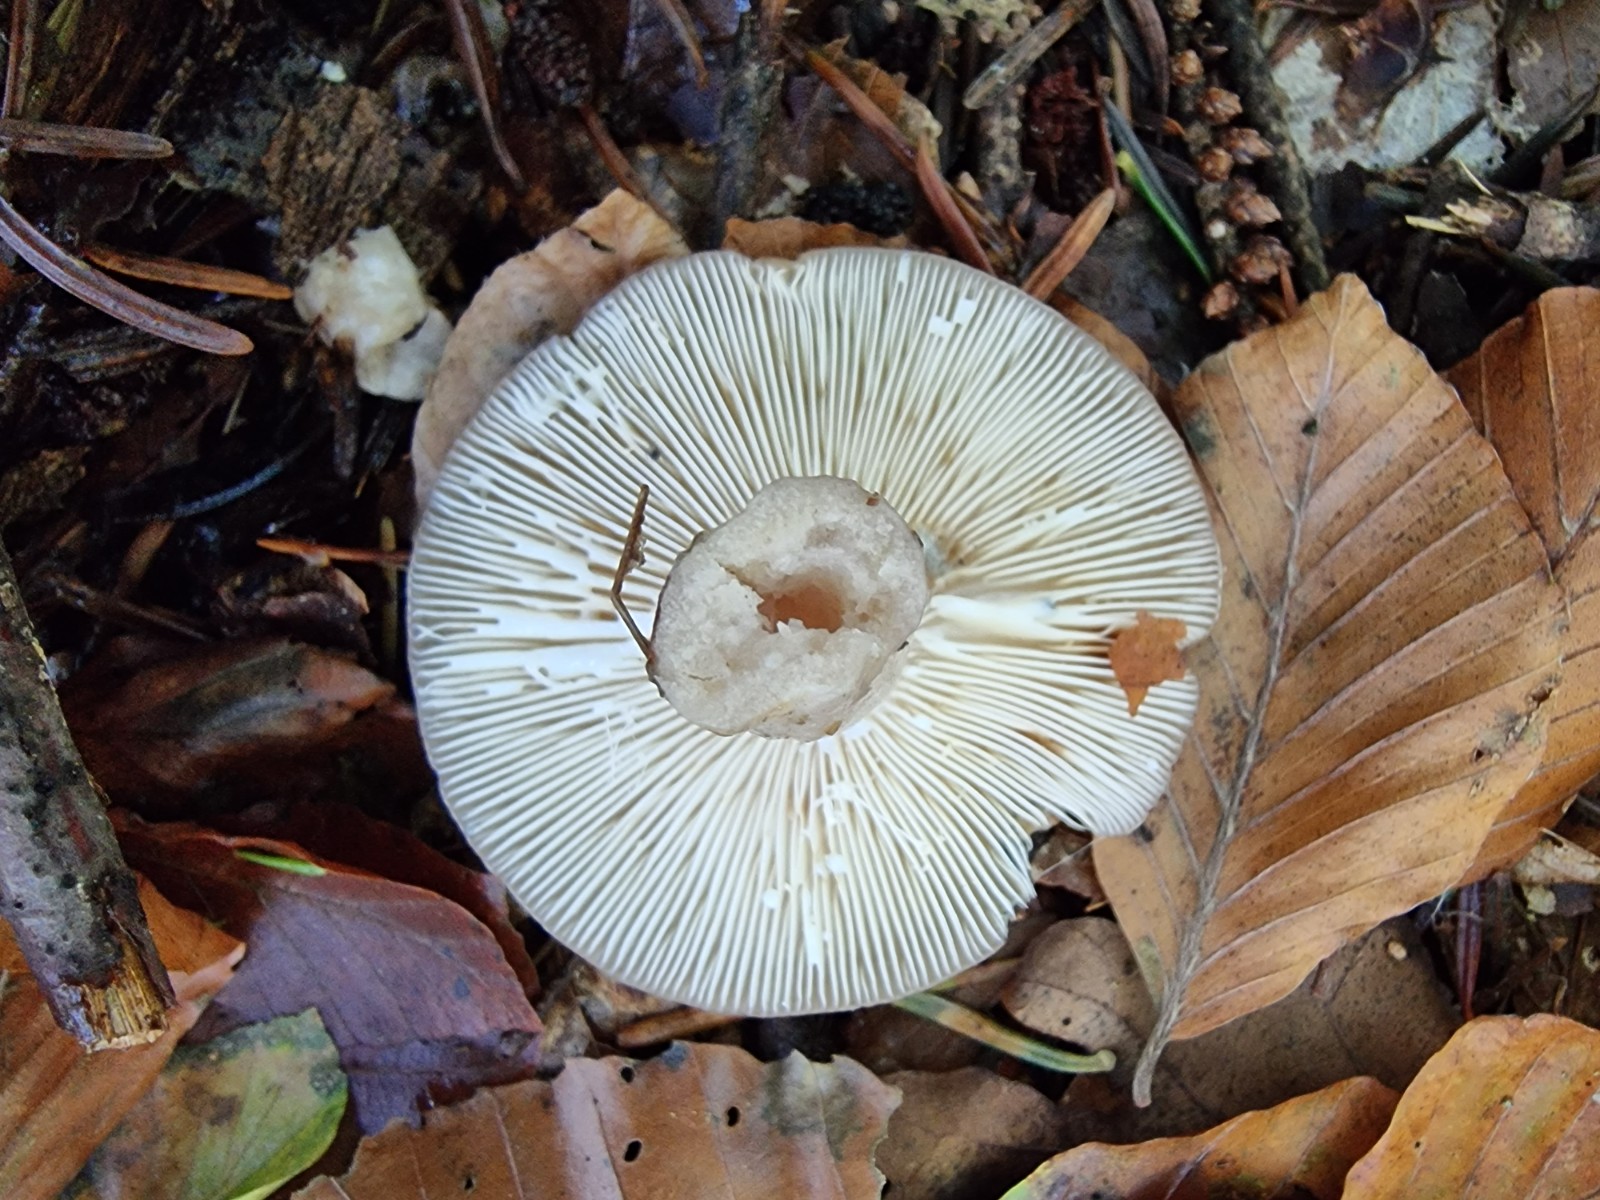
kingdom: Fungi
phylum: Basidiomycota
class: Agaricomycetes
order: Russulales
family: Russulaceae
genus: Lactarius
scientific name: Lactarius blennius
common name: dråbeplettet mælkehat
